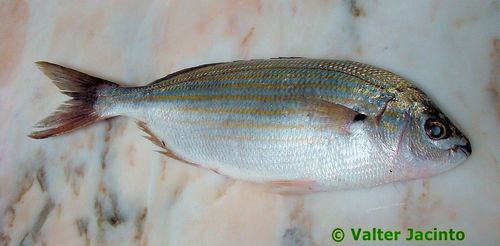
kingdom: Animalia
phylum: Chordata
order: Perciformes
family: Sparidae
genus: Sarpa
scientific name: Sarpa salpa
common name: Salema
